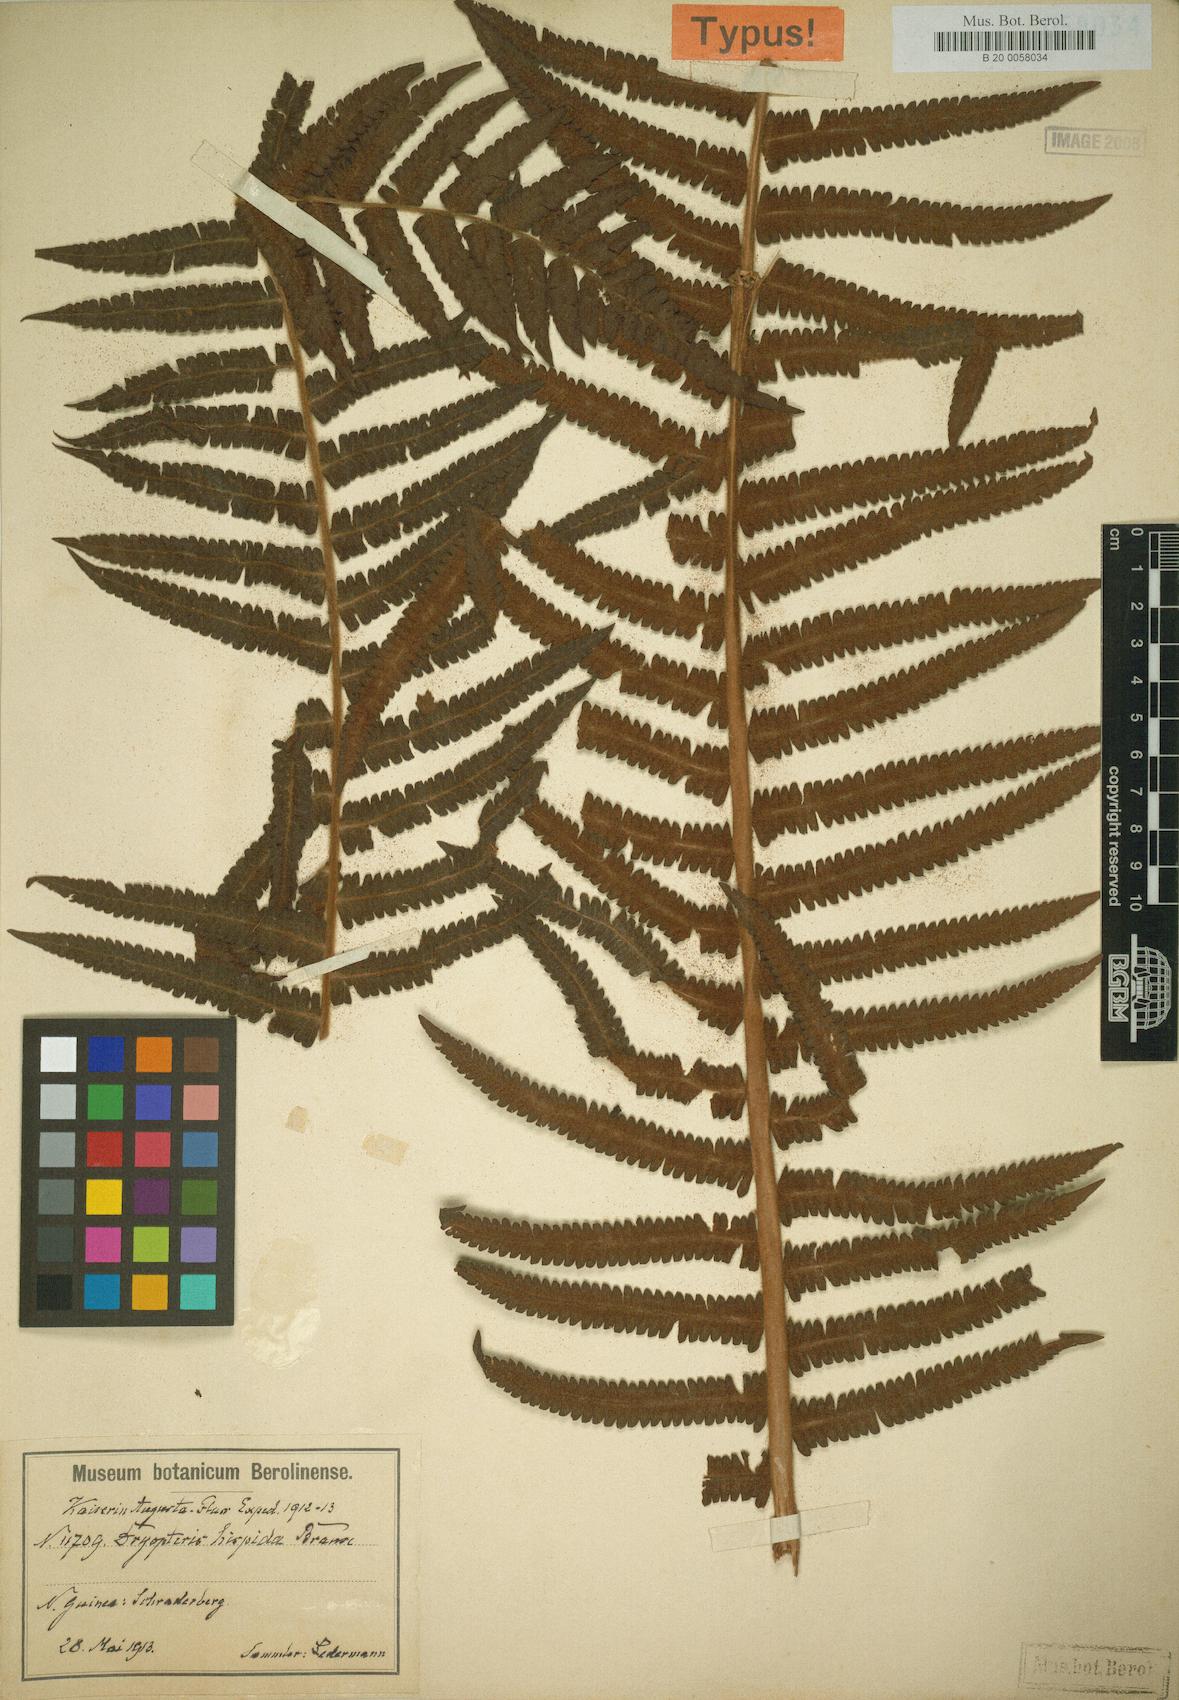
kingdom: Plantae
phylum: Tracheophyta
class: Polypodiopsida
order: Polypodiales
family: Thelypteridaceae
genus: Sphaerostephanos
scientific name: Sphaerostephanos hispiduliformis
